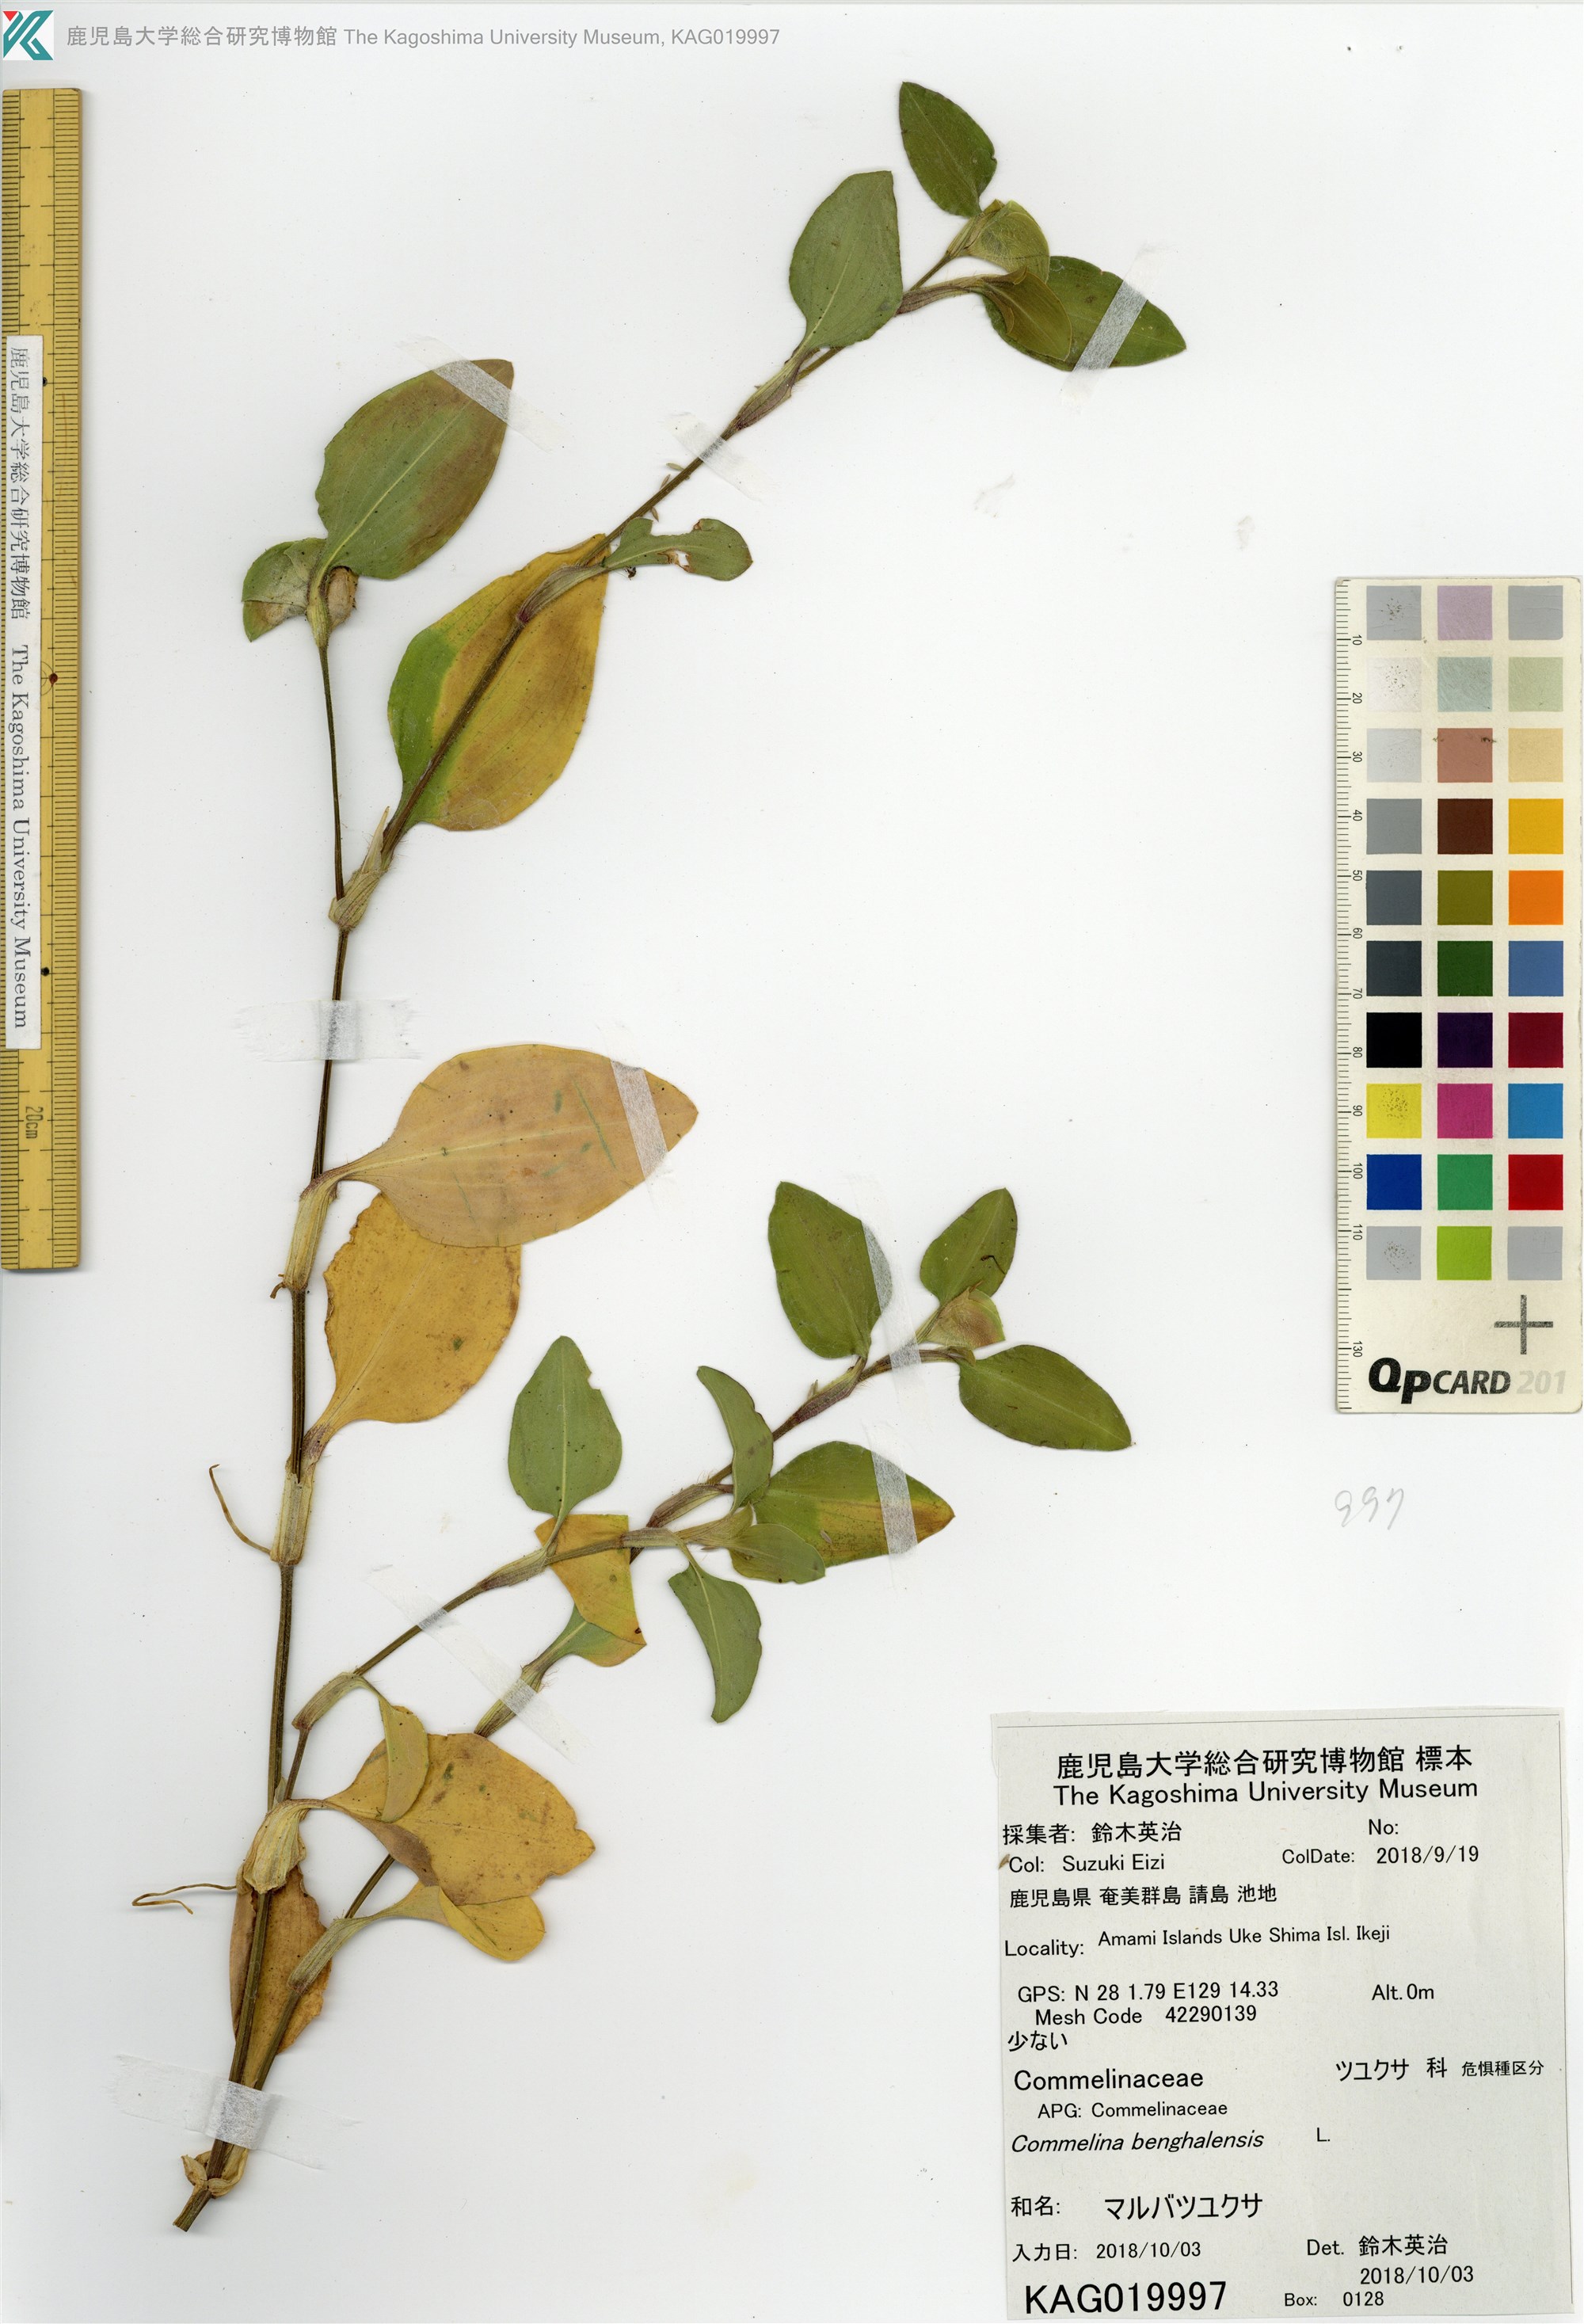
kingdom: Plantae
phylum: Tracheophyta
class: Liliopsida
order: Commelinales
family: Commelinaceae
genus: Commelina
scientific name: Commelina benghalensis
